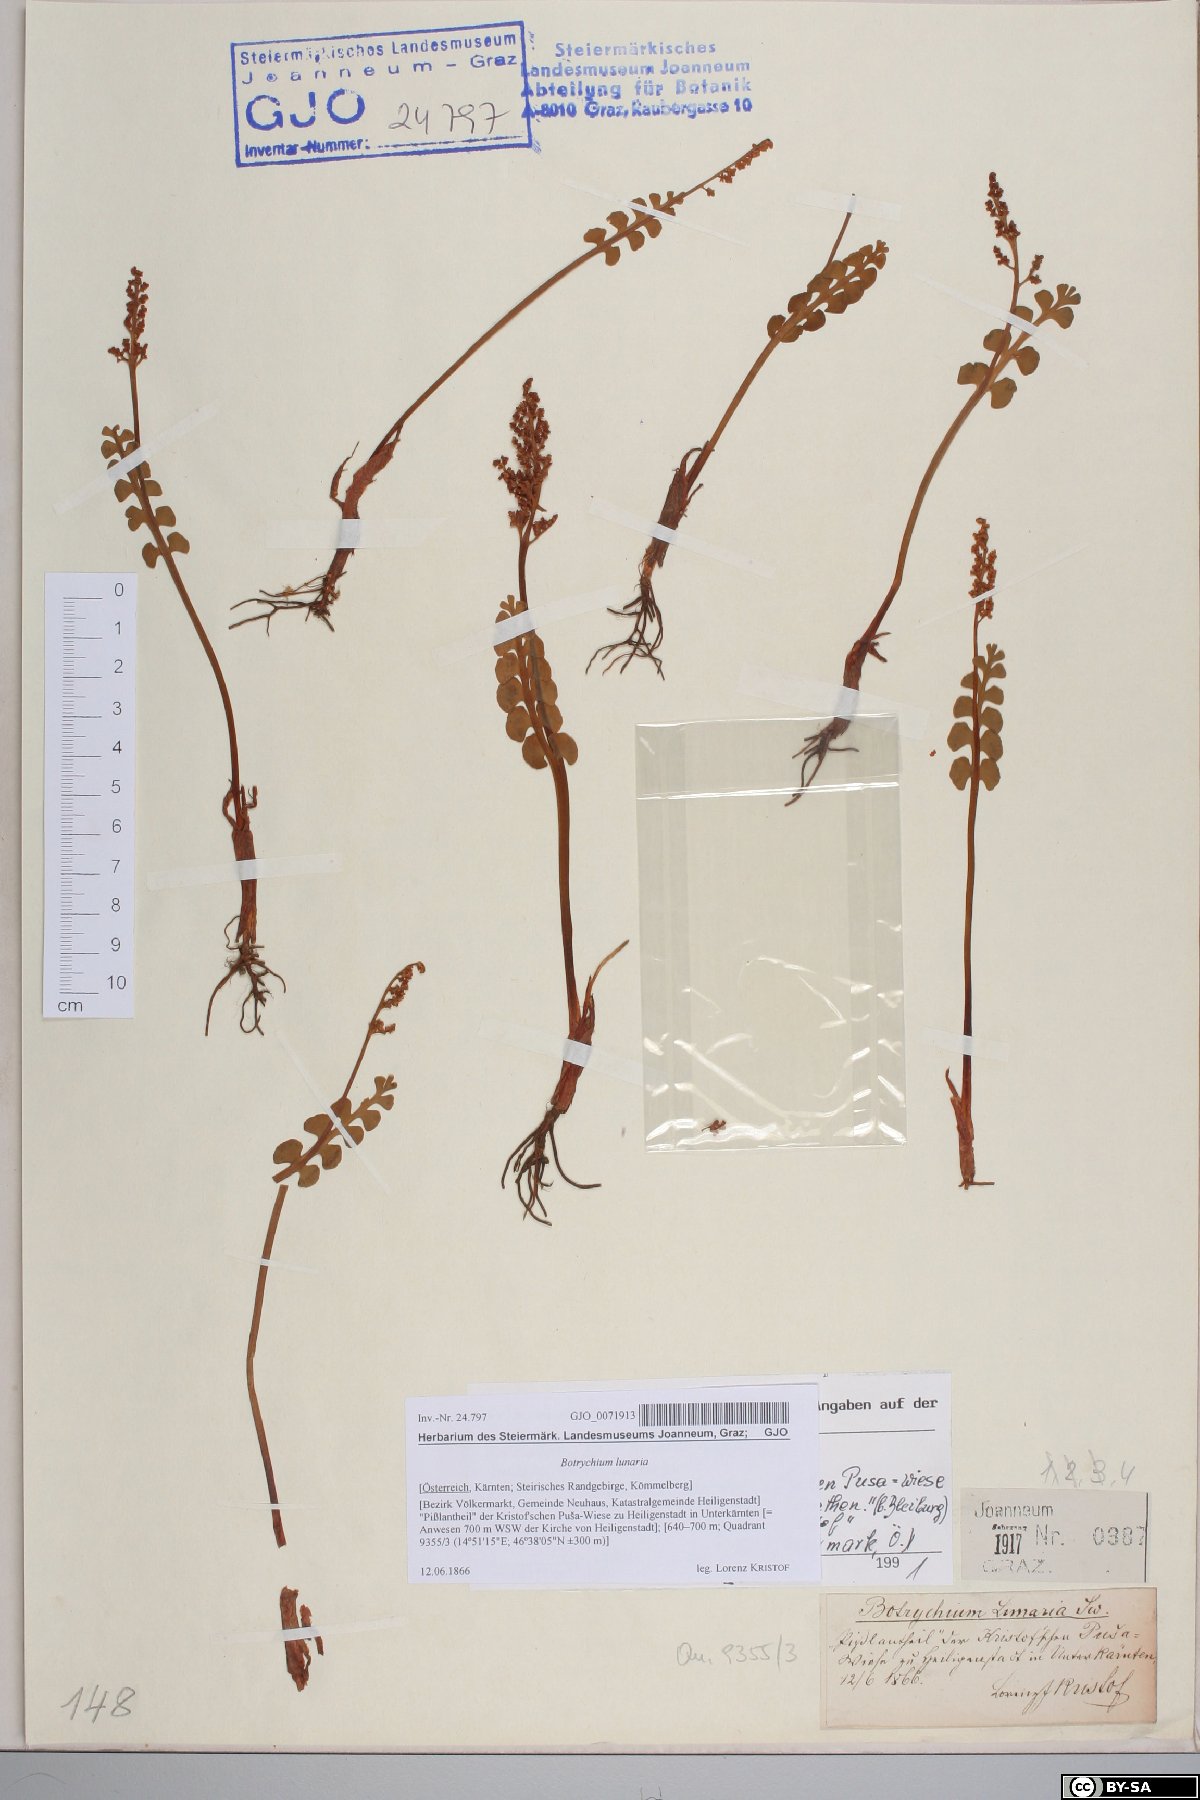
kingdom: Plantae
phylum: Tracheophyta
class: Polypodiopsida
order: Ophioglossales
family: Ophioglossaceae
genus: Botrychium
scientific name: Botrychium lunaria
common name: Moonwort
